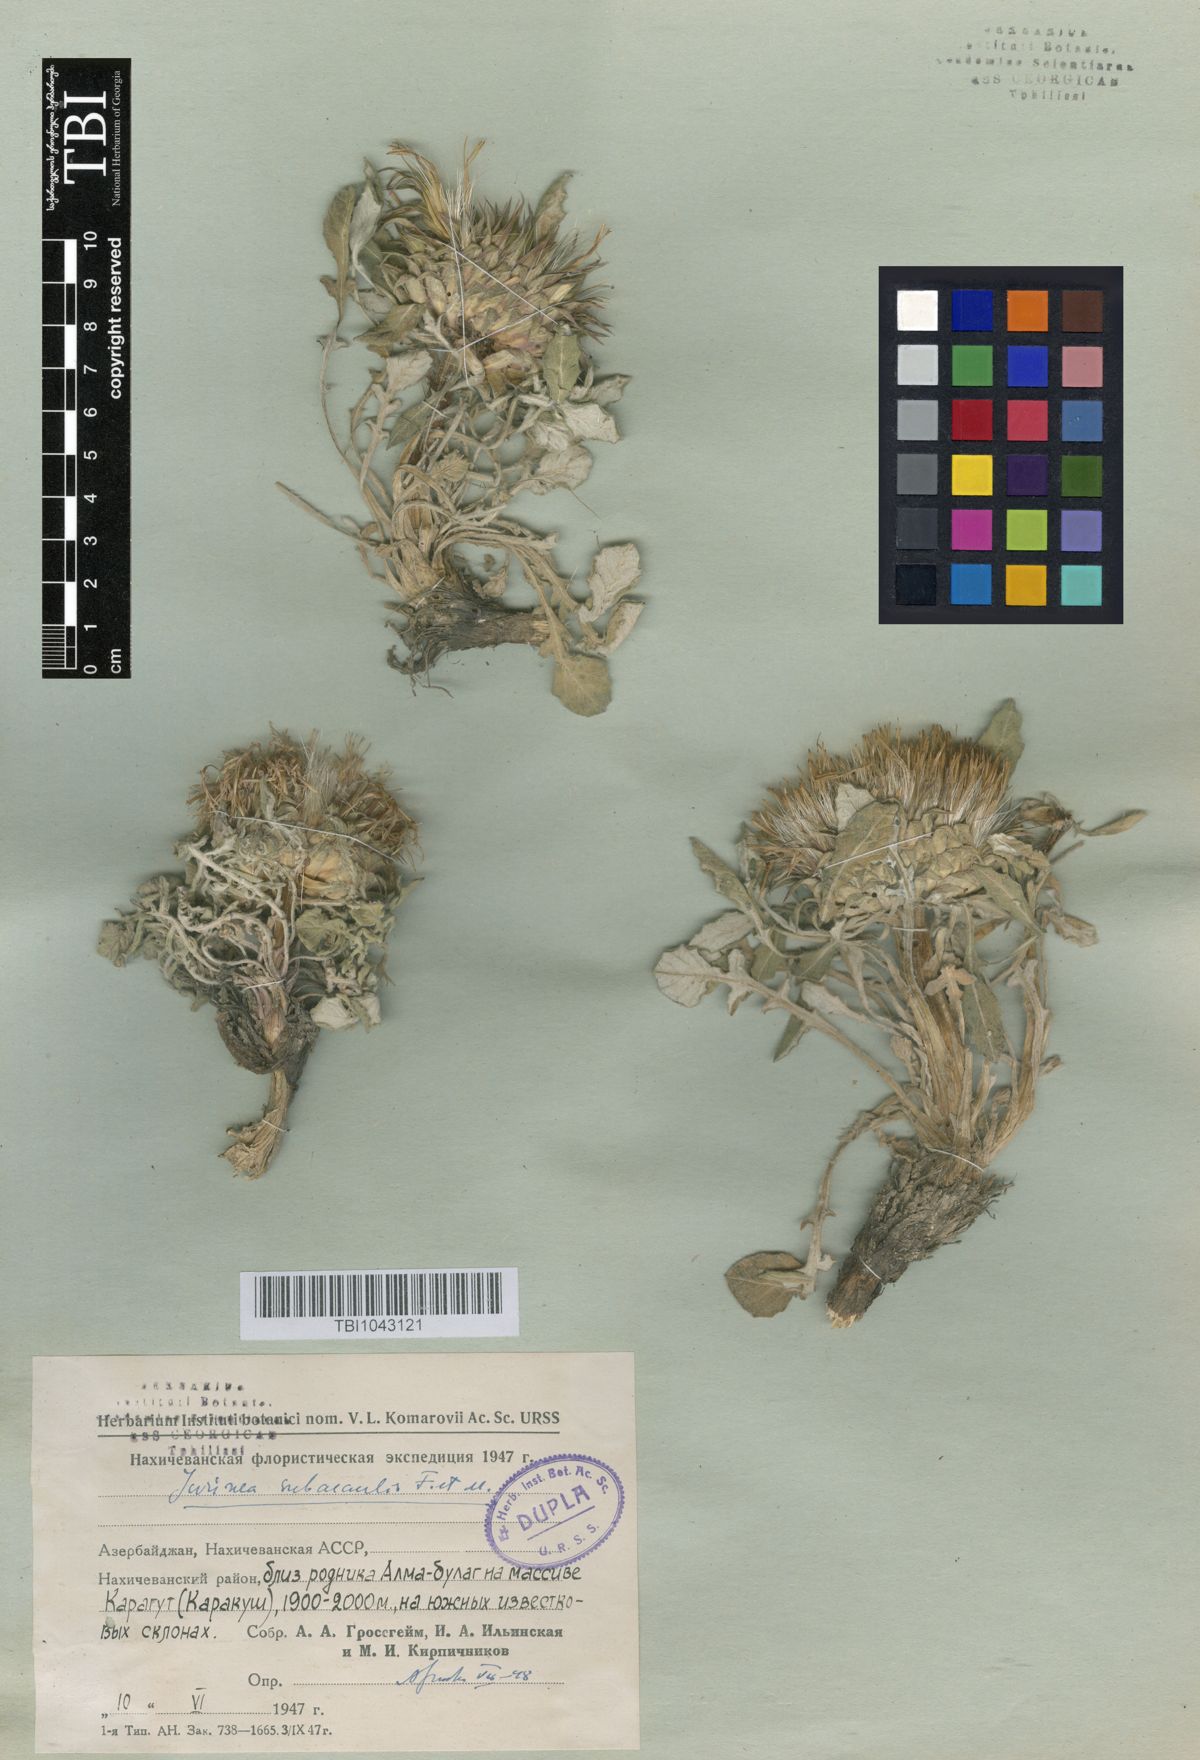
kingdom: Plantae
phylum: Tracheophyta
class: Magnoliopsida
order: Asterales
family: Asteraceae
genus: Jurinea
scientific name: Jurinea moschus
